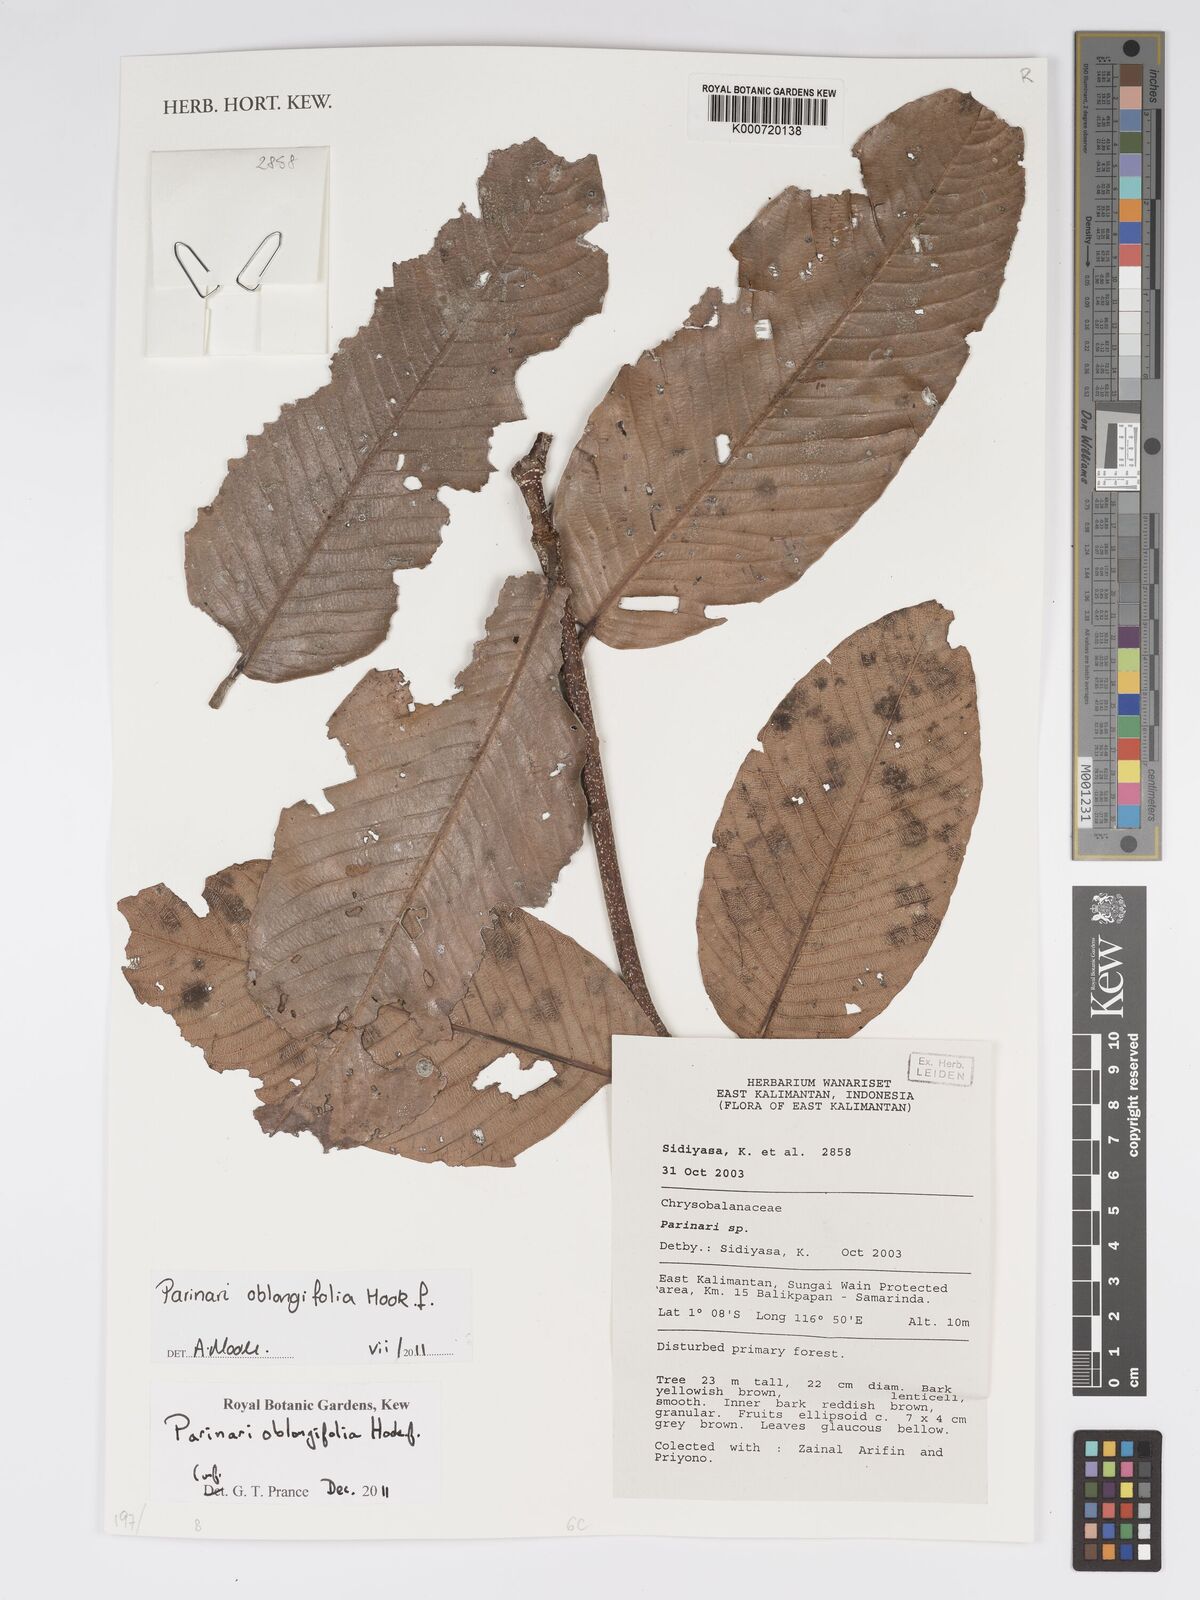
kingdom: Plantae
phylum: Tracheophyta
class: Magnoliopsida
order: Malpighiales
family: Chrysobalanaceae
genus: Parinari
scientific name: Parinari oblongifolia
